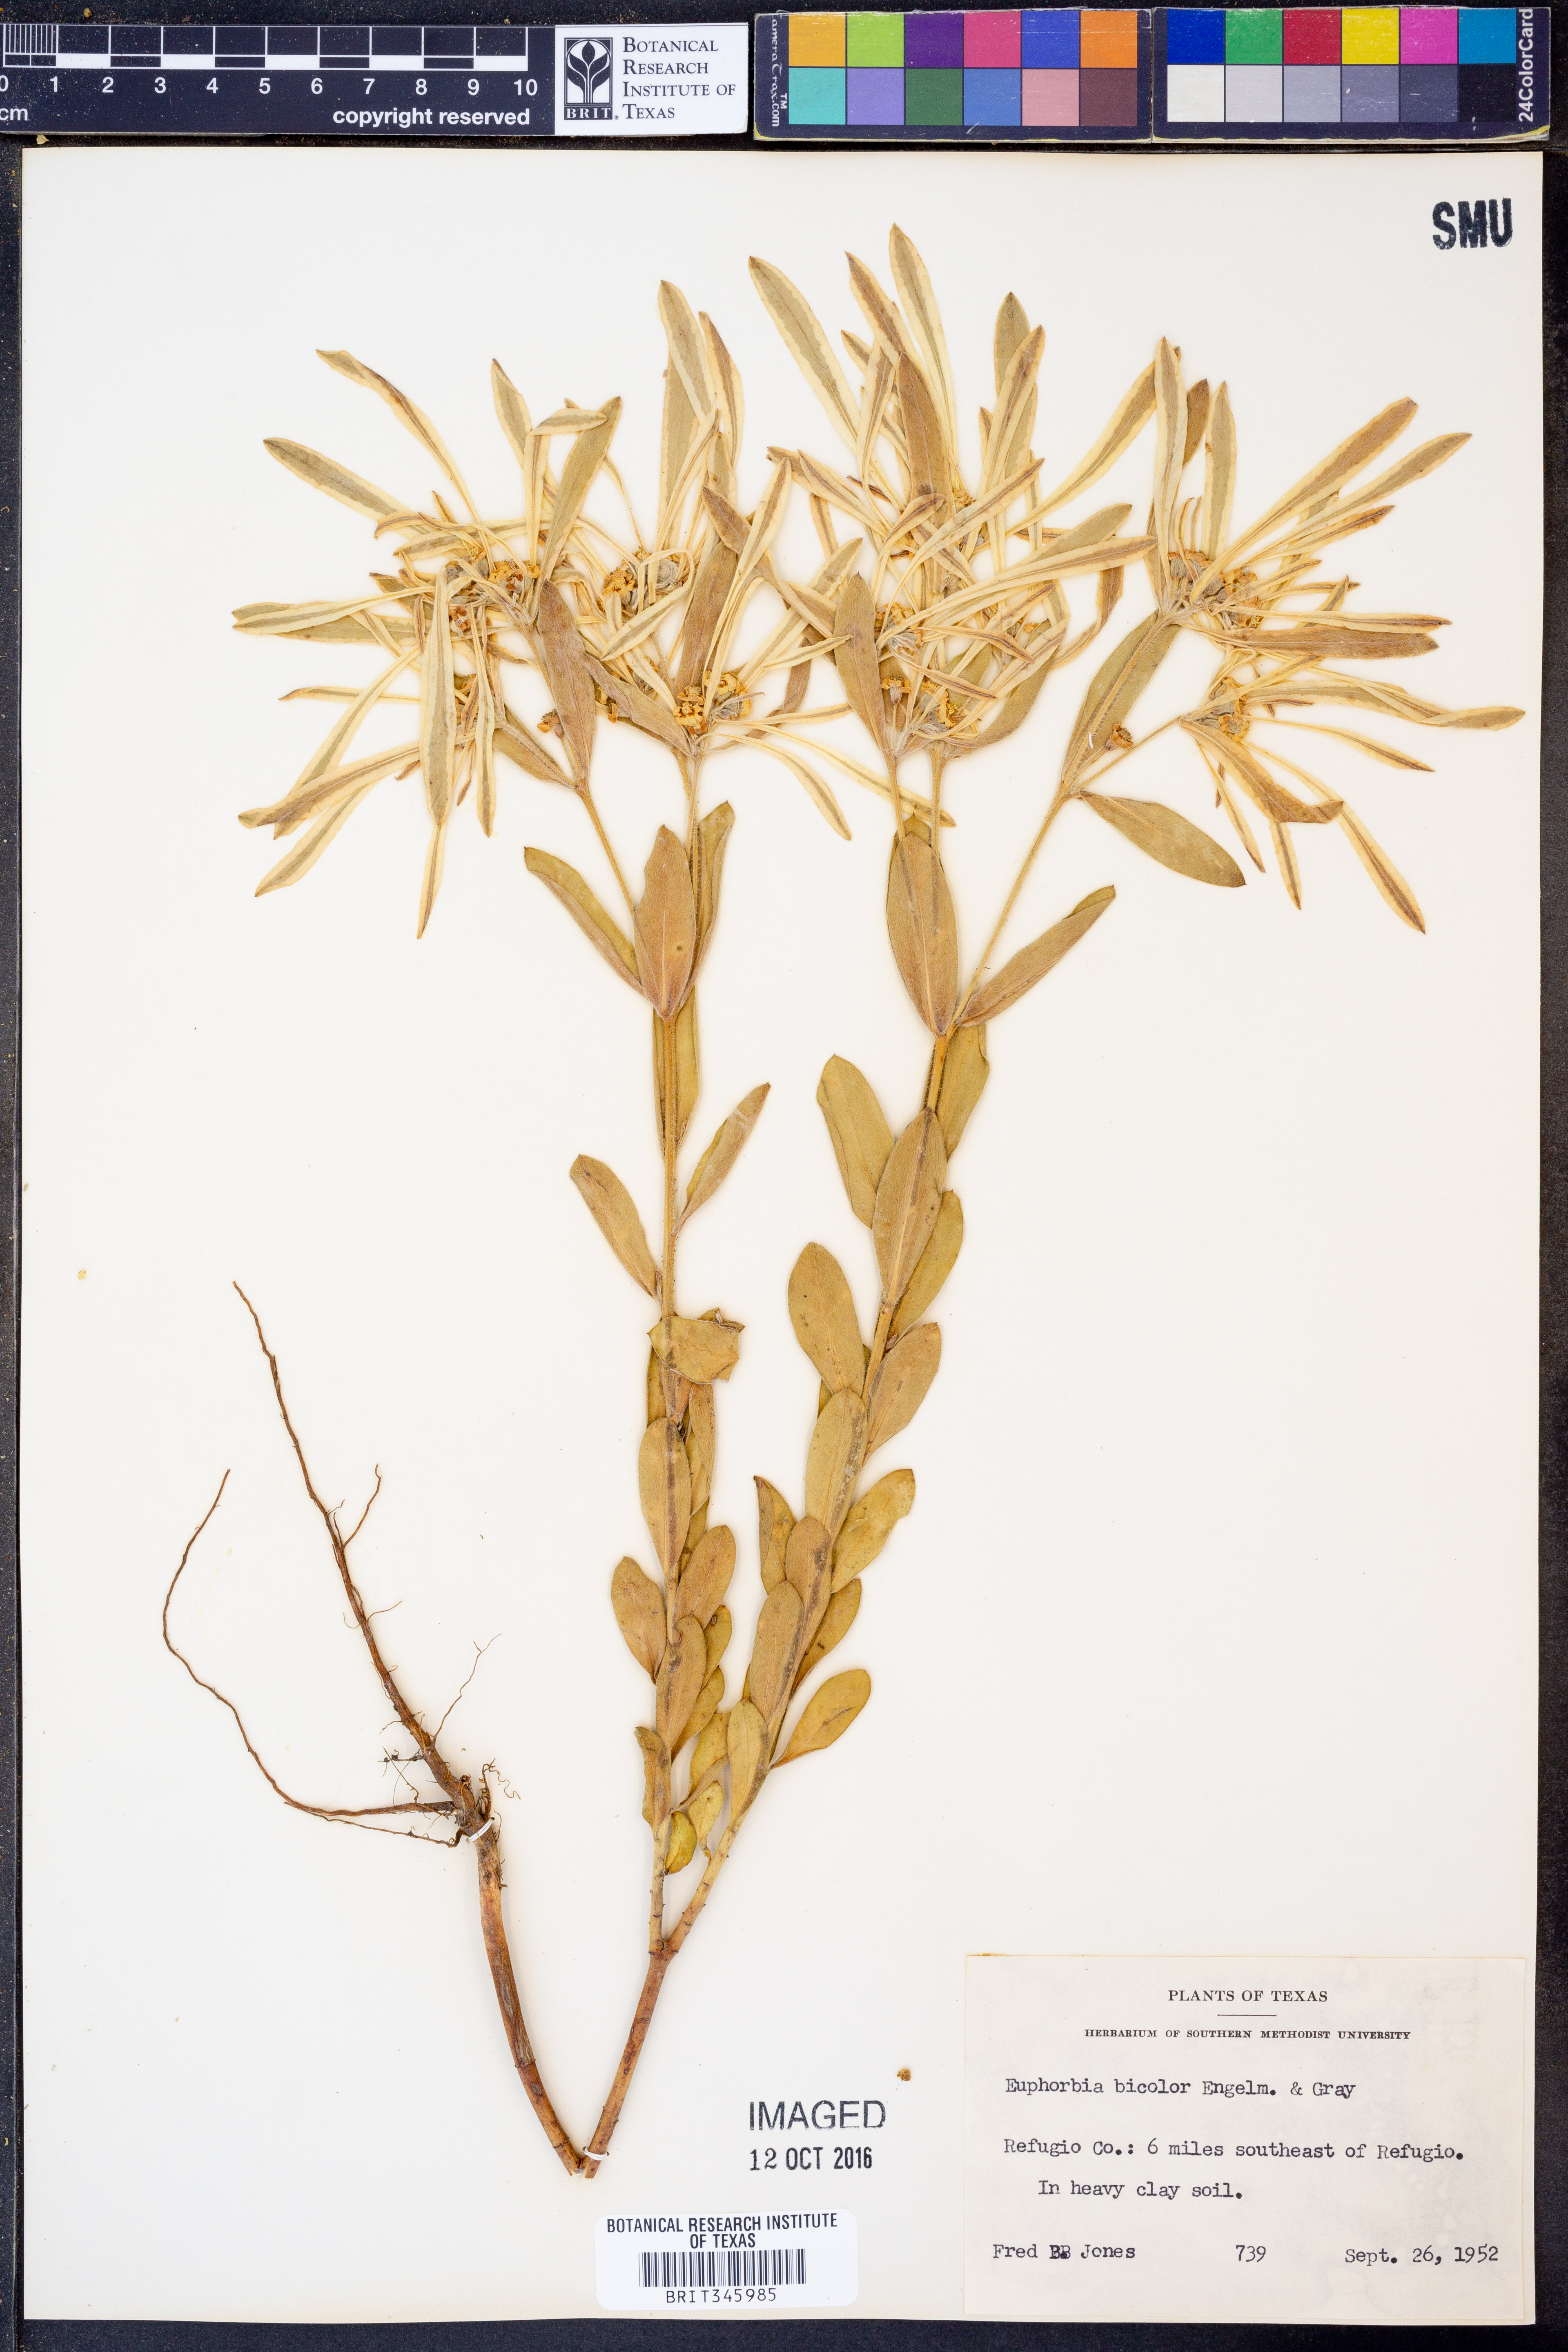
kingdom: Plantae
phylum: Tracheophyta
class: Magnoliopsida
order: Malpighiales
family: Euphorbiaceae
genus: Euphorbia
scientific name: Euphorbia bicolor
